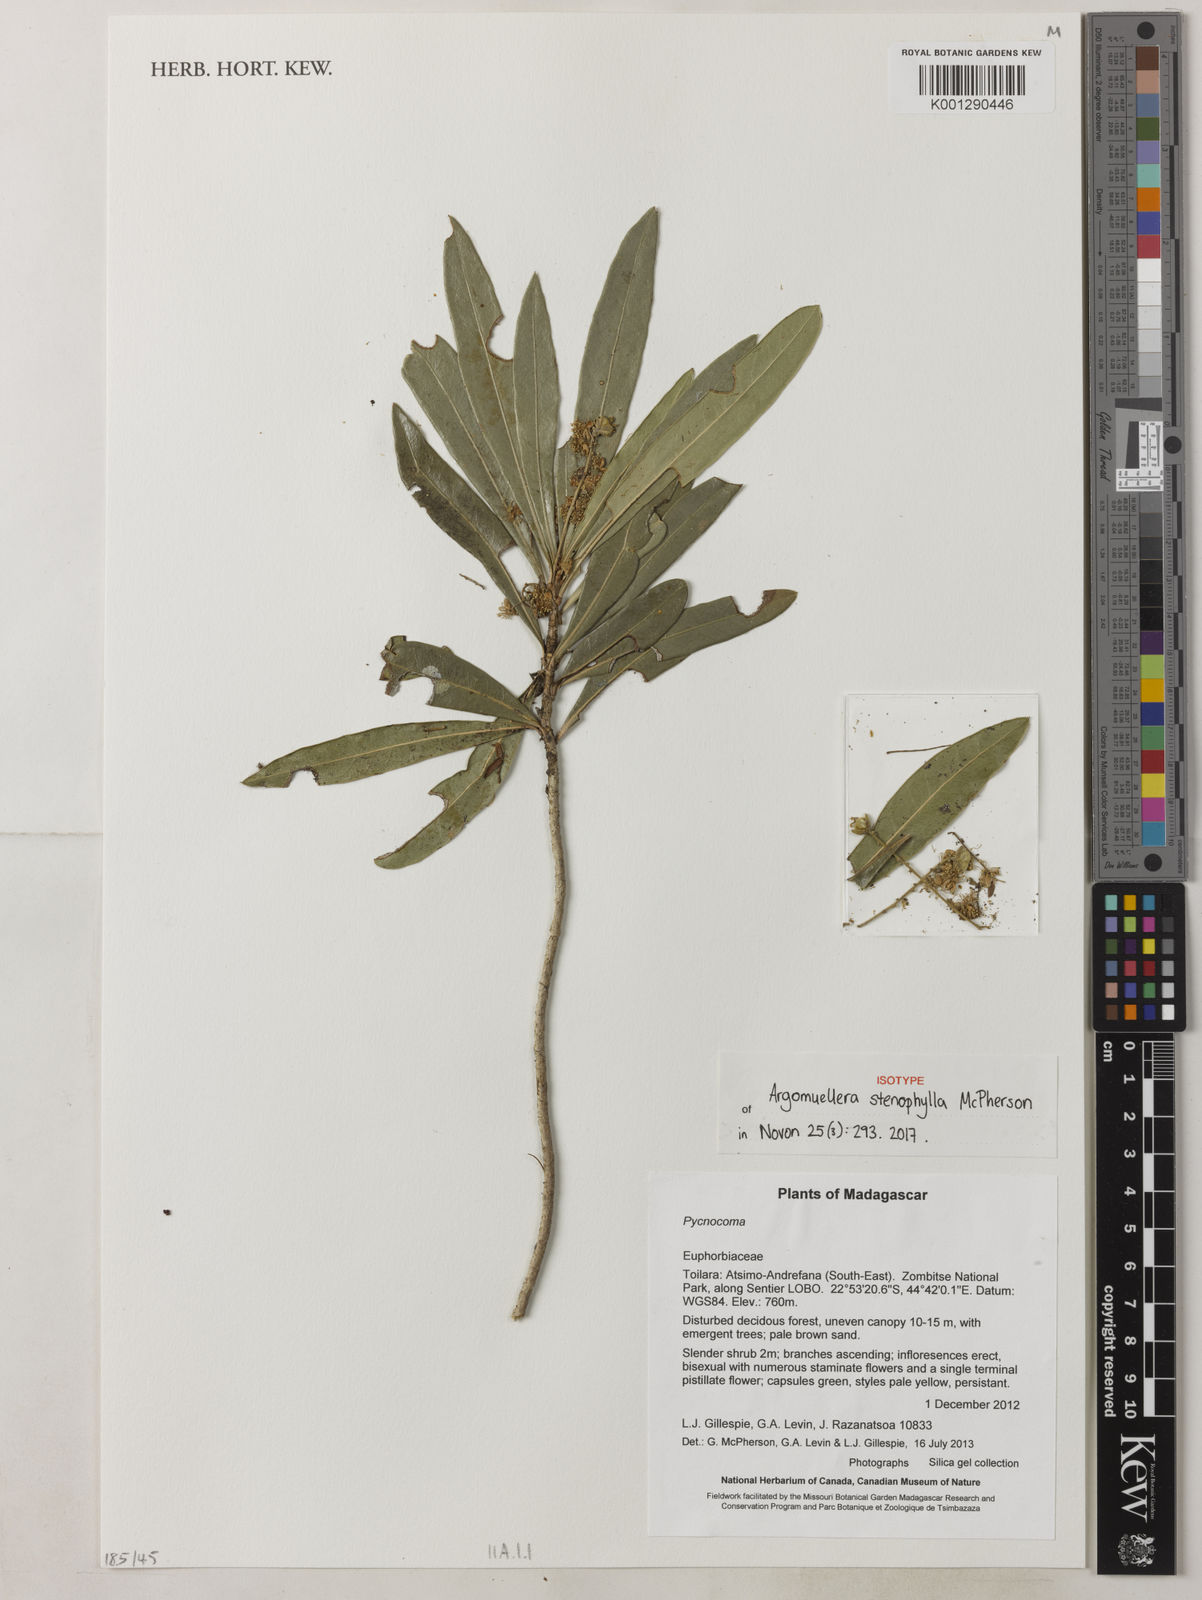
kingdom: Plantae
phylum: Tracheophyta
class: Magnoliopsida
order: Malpighiales
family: Euphorbiaceae
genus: Argomuellera
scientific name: Argomuellera stenophylla
